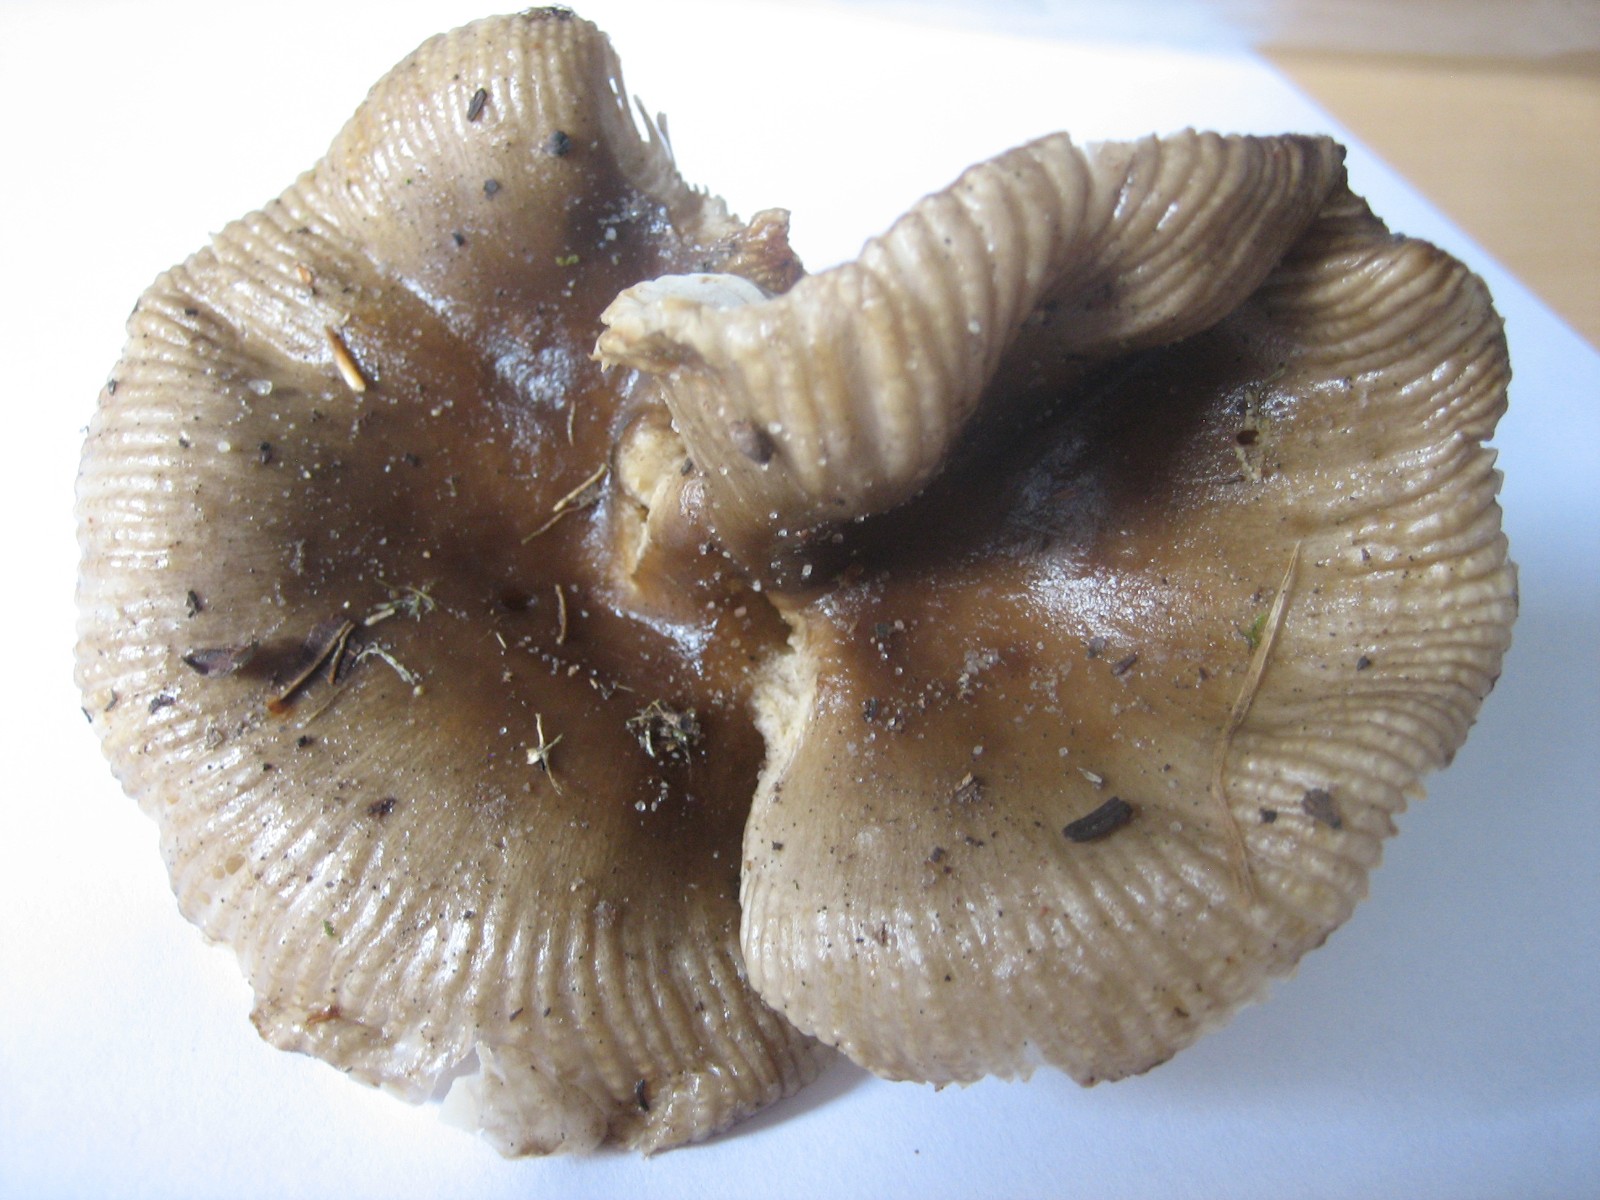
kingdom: Fungi
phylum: Basidiomycota
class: Agaricomycetes
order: Russulales
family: Russulaceae
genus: Russula
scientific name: Russula recondita
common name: mild kam-skørhat
